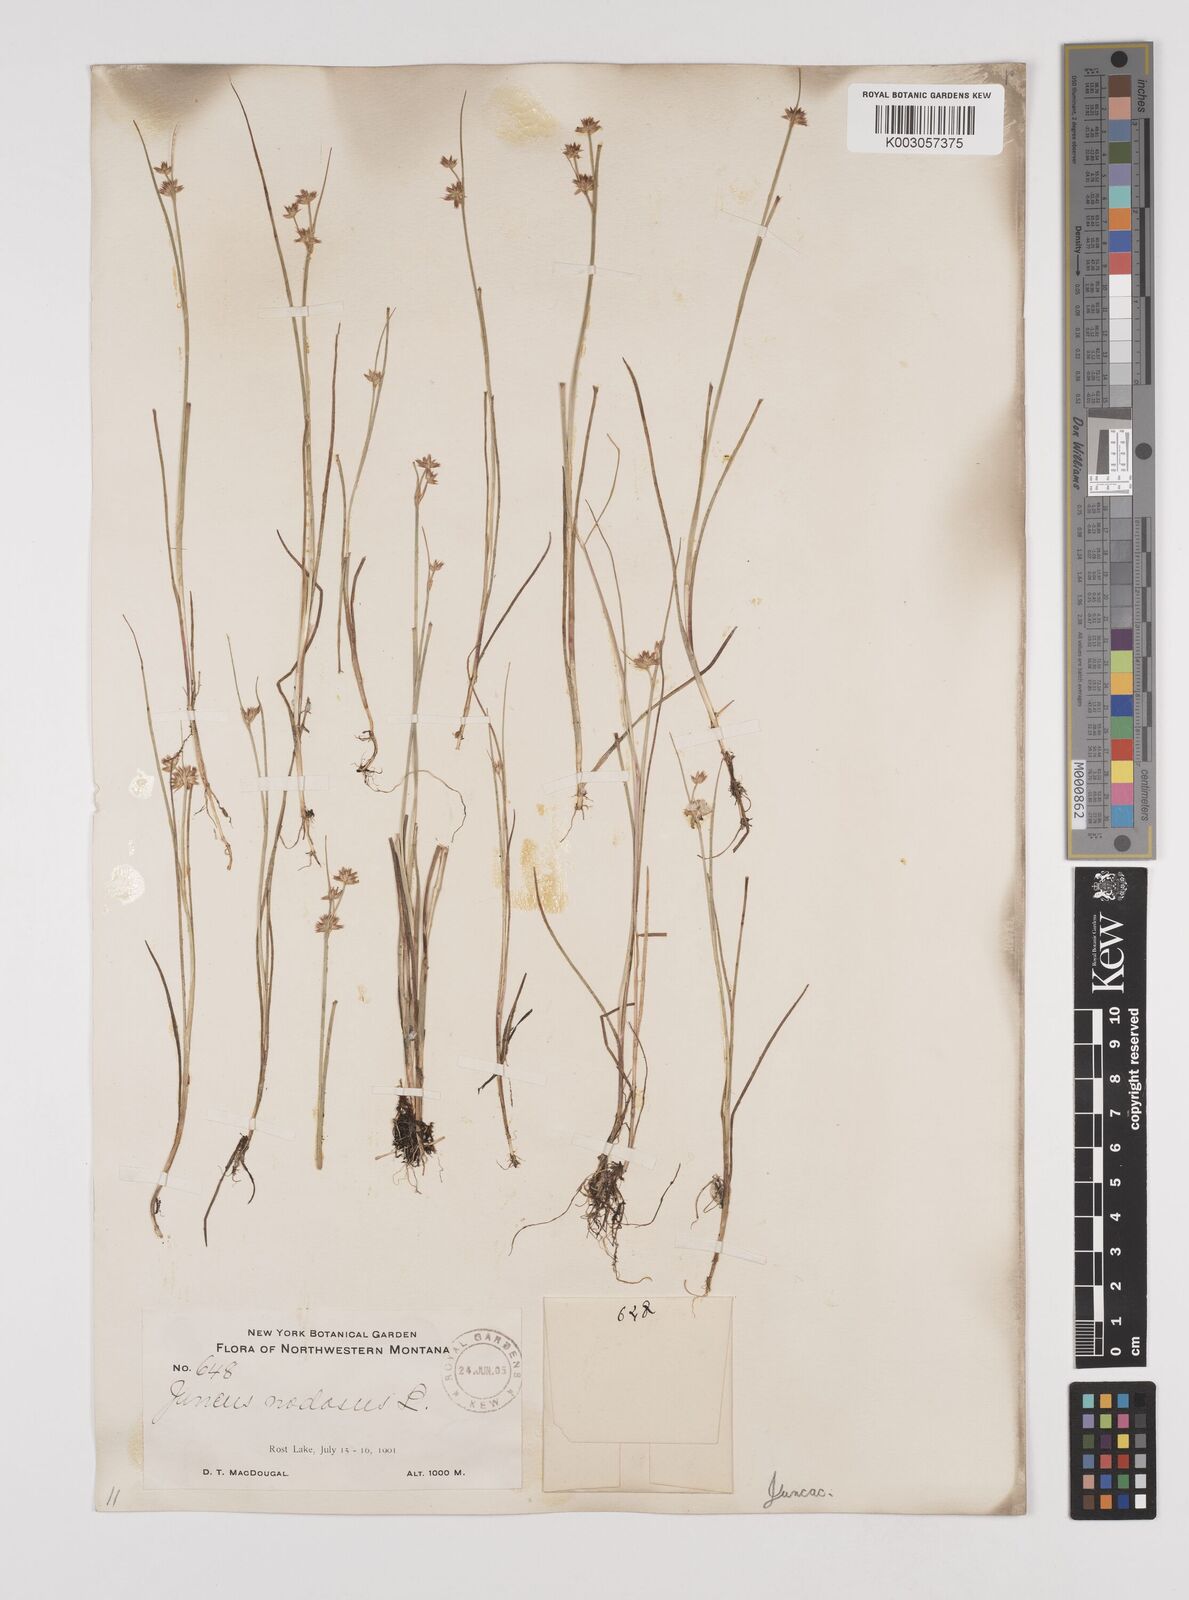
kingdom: Plantae
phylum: Tracheophyta
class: Liliopsida
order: Poales
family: Juncaceae
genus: Juncus
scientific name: Juncus nodosus
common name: Knotted rush
